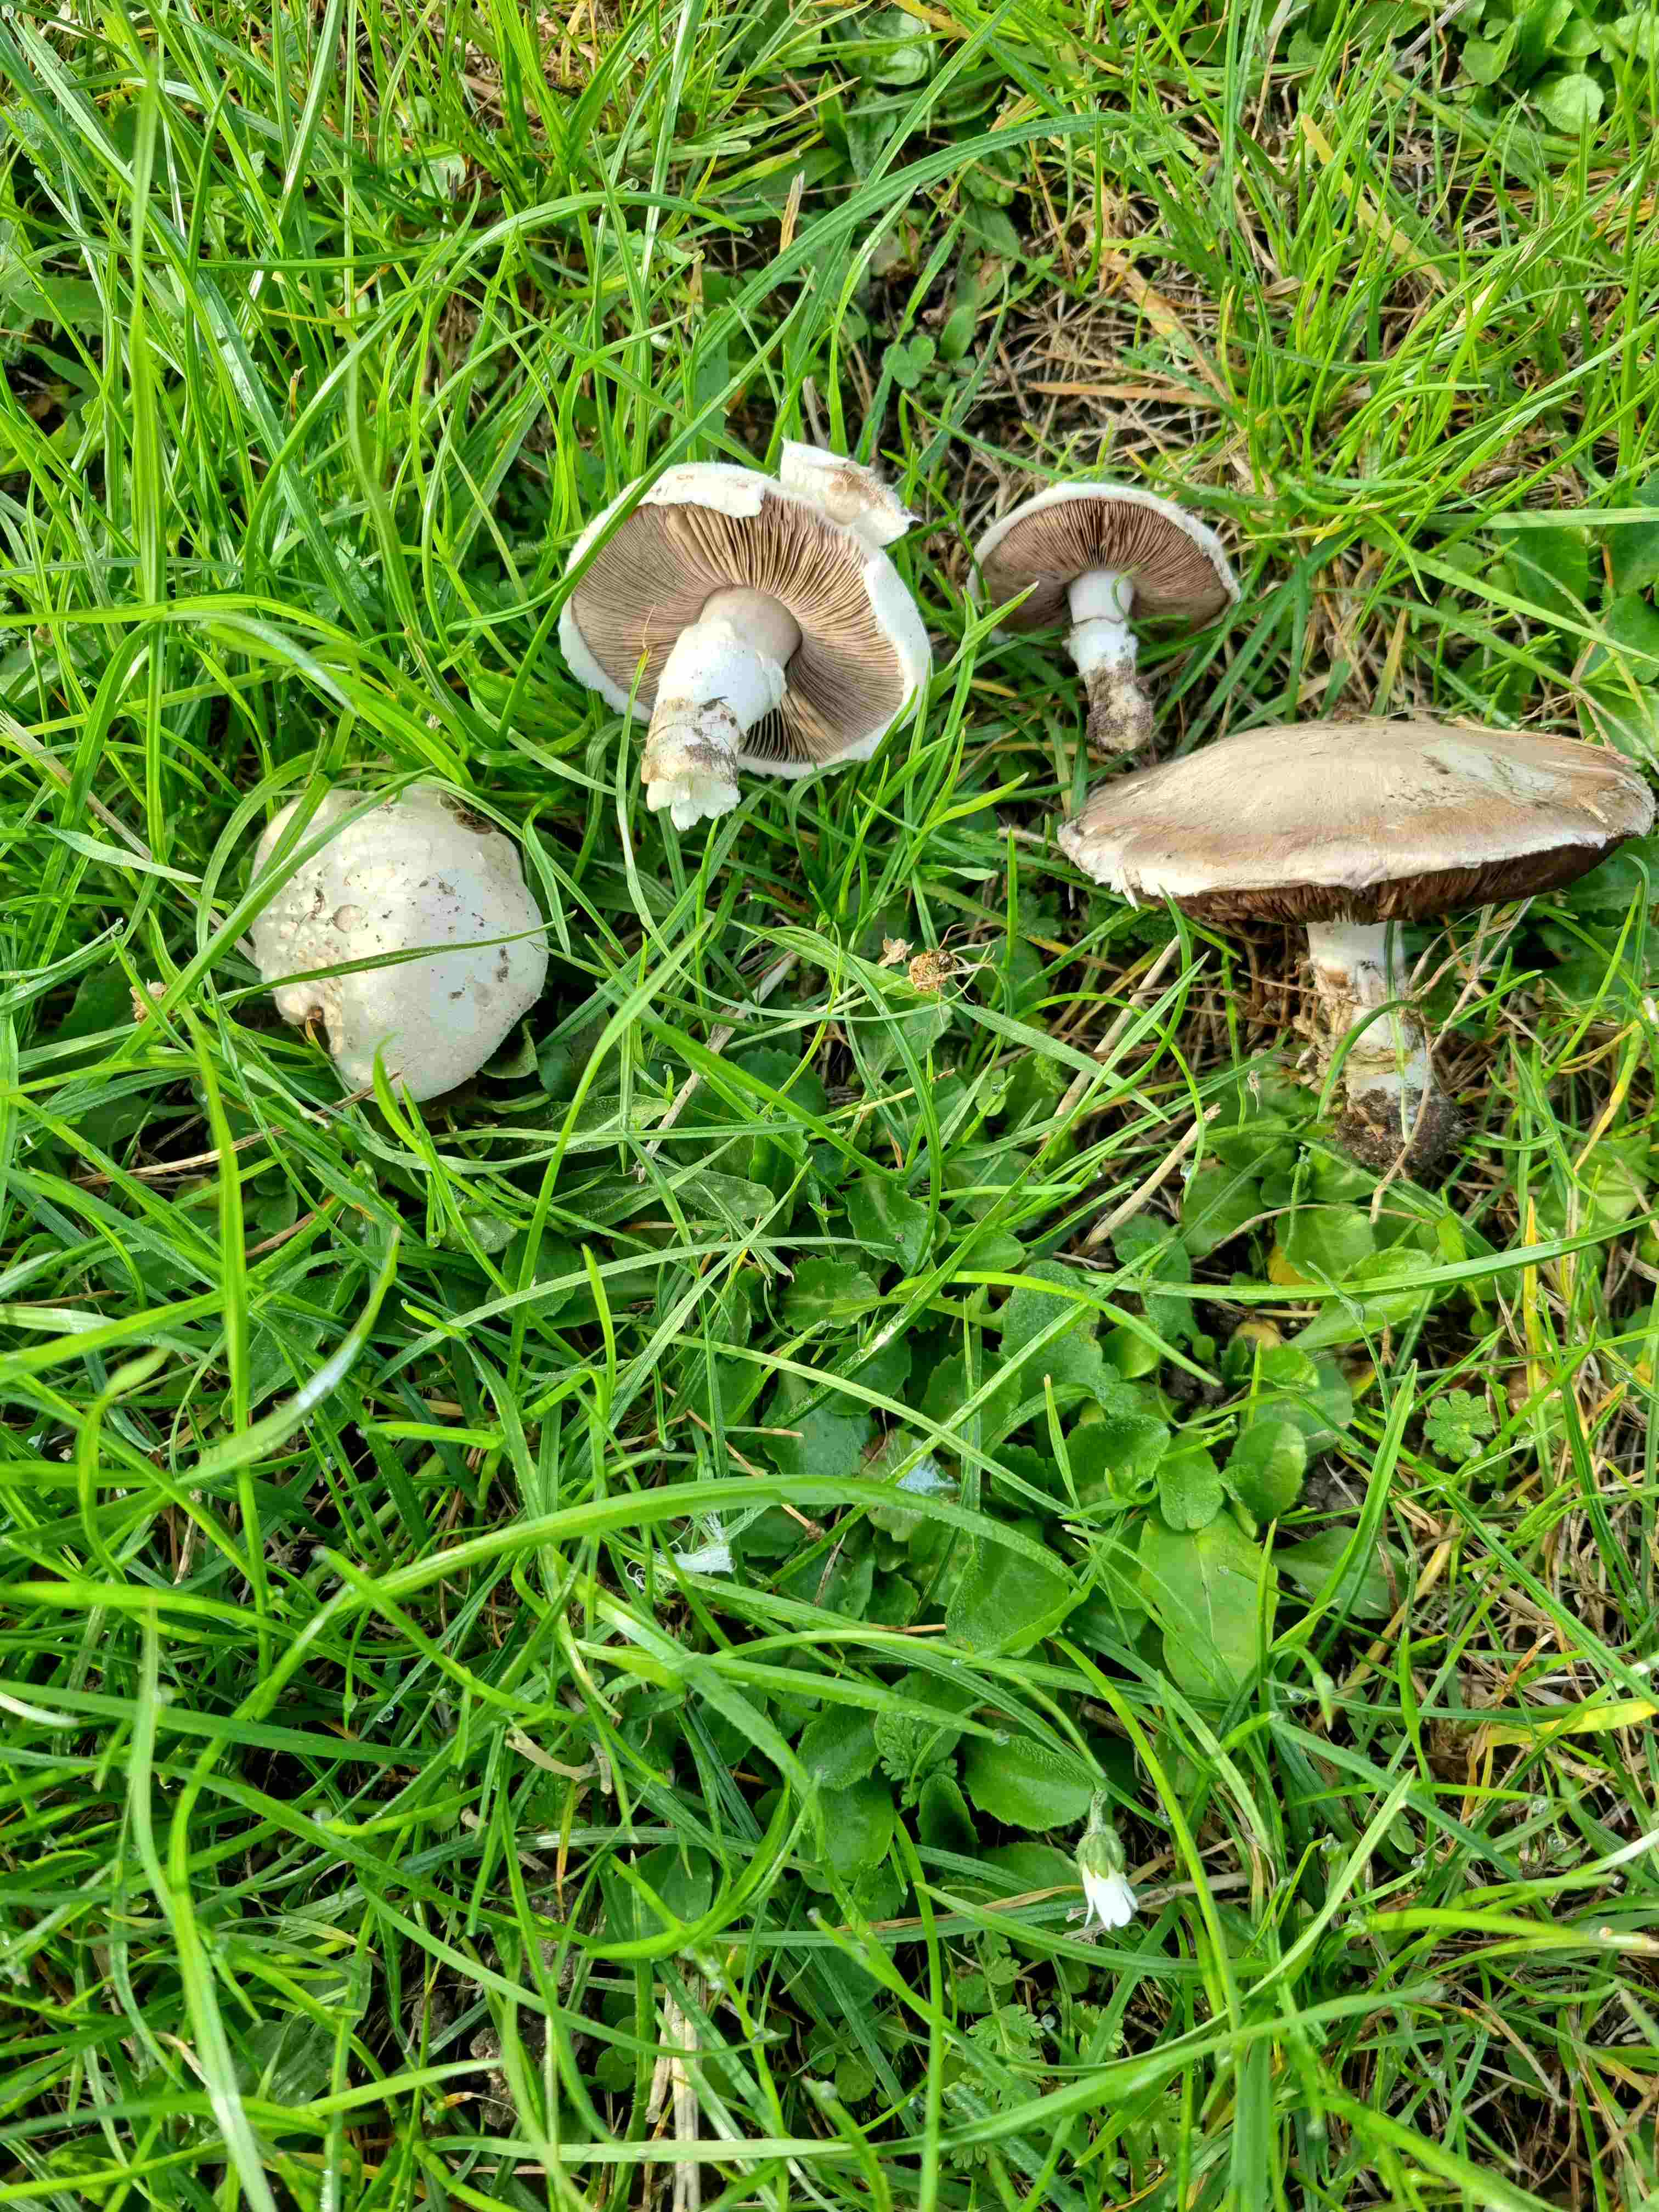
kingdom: Fungi
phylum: Basidiomycota
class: Agaricomycetes
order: Agaricales
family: Agaricaceae
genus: Agaricus
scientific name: Agaricus campestris
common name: mark-champignon
